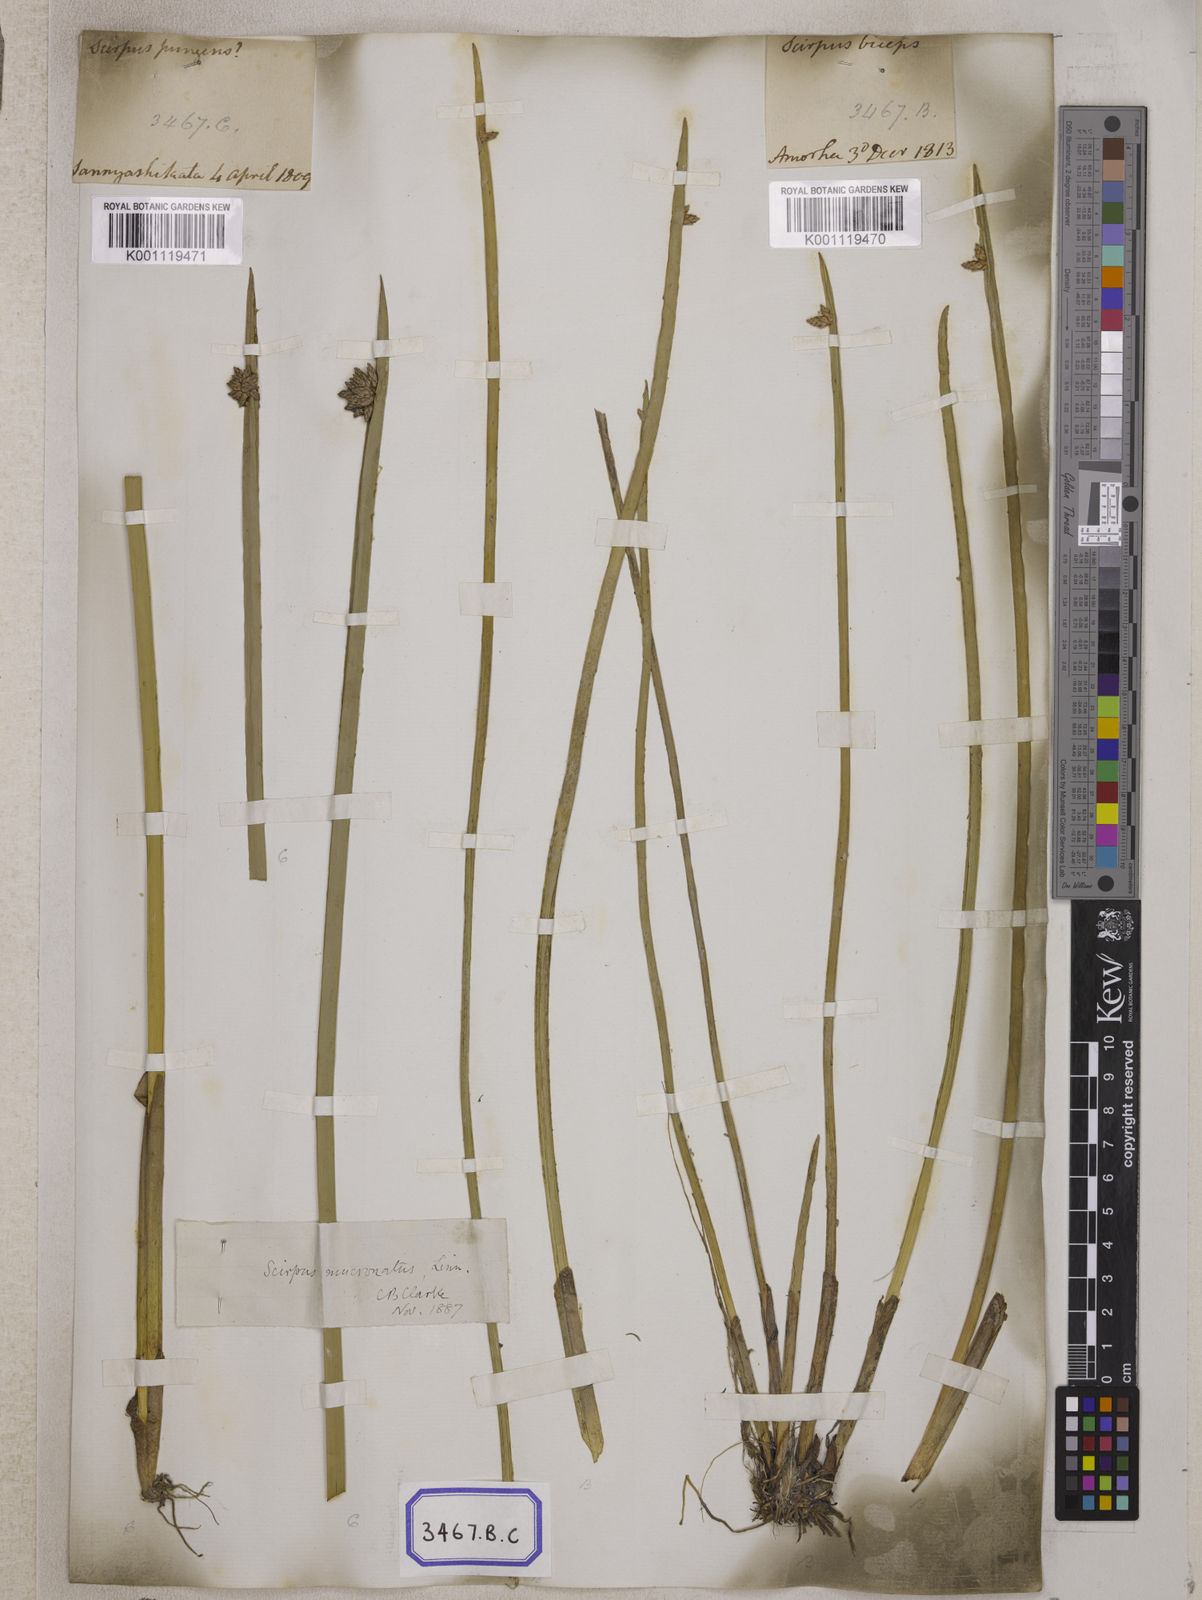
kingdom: Plantae
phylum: Tracheophyta
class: Liliopsida
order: Poales
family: Cyperaceae
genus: Scirpus
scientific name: Scirpus
